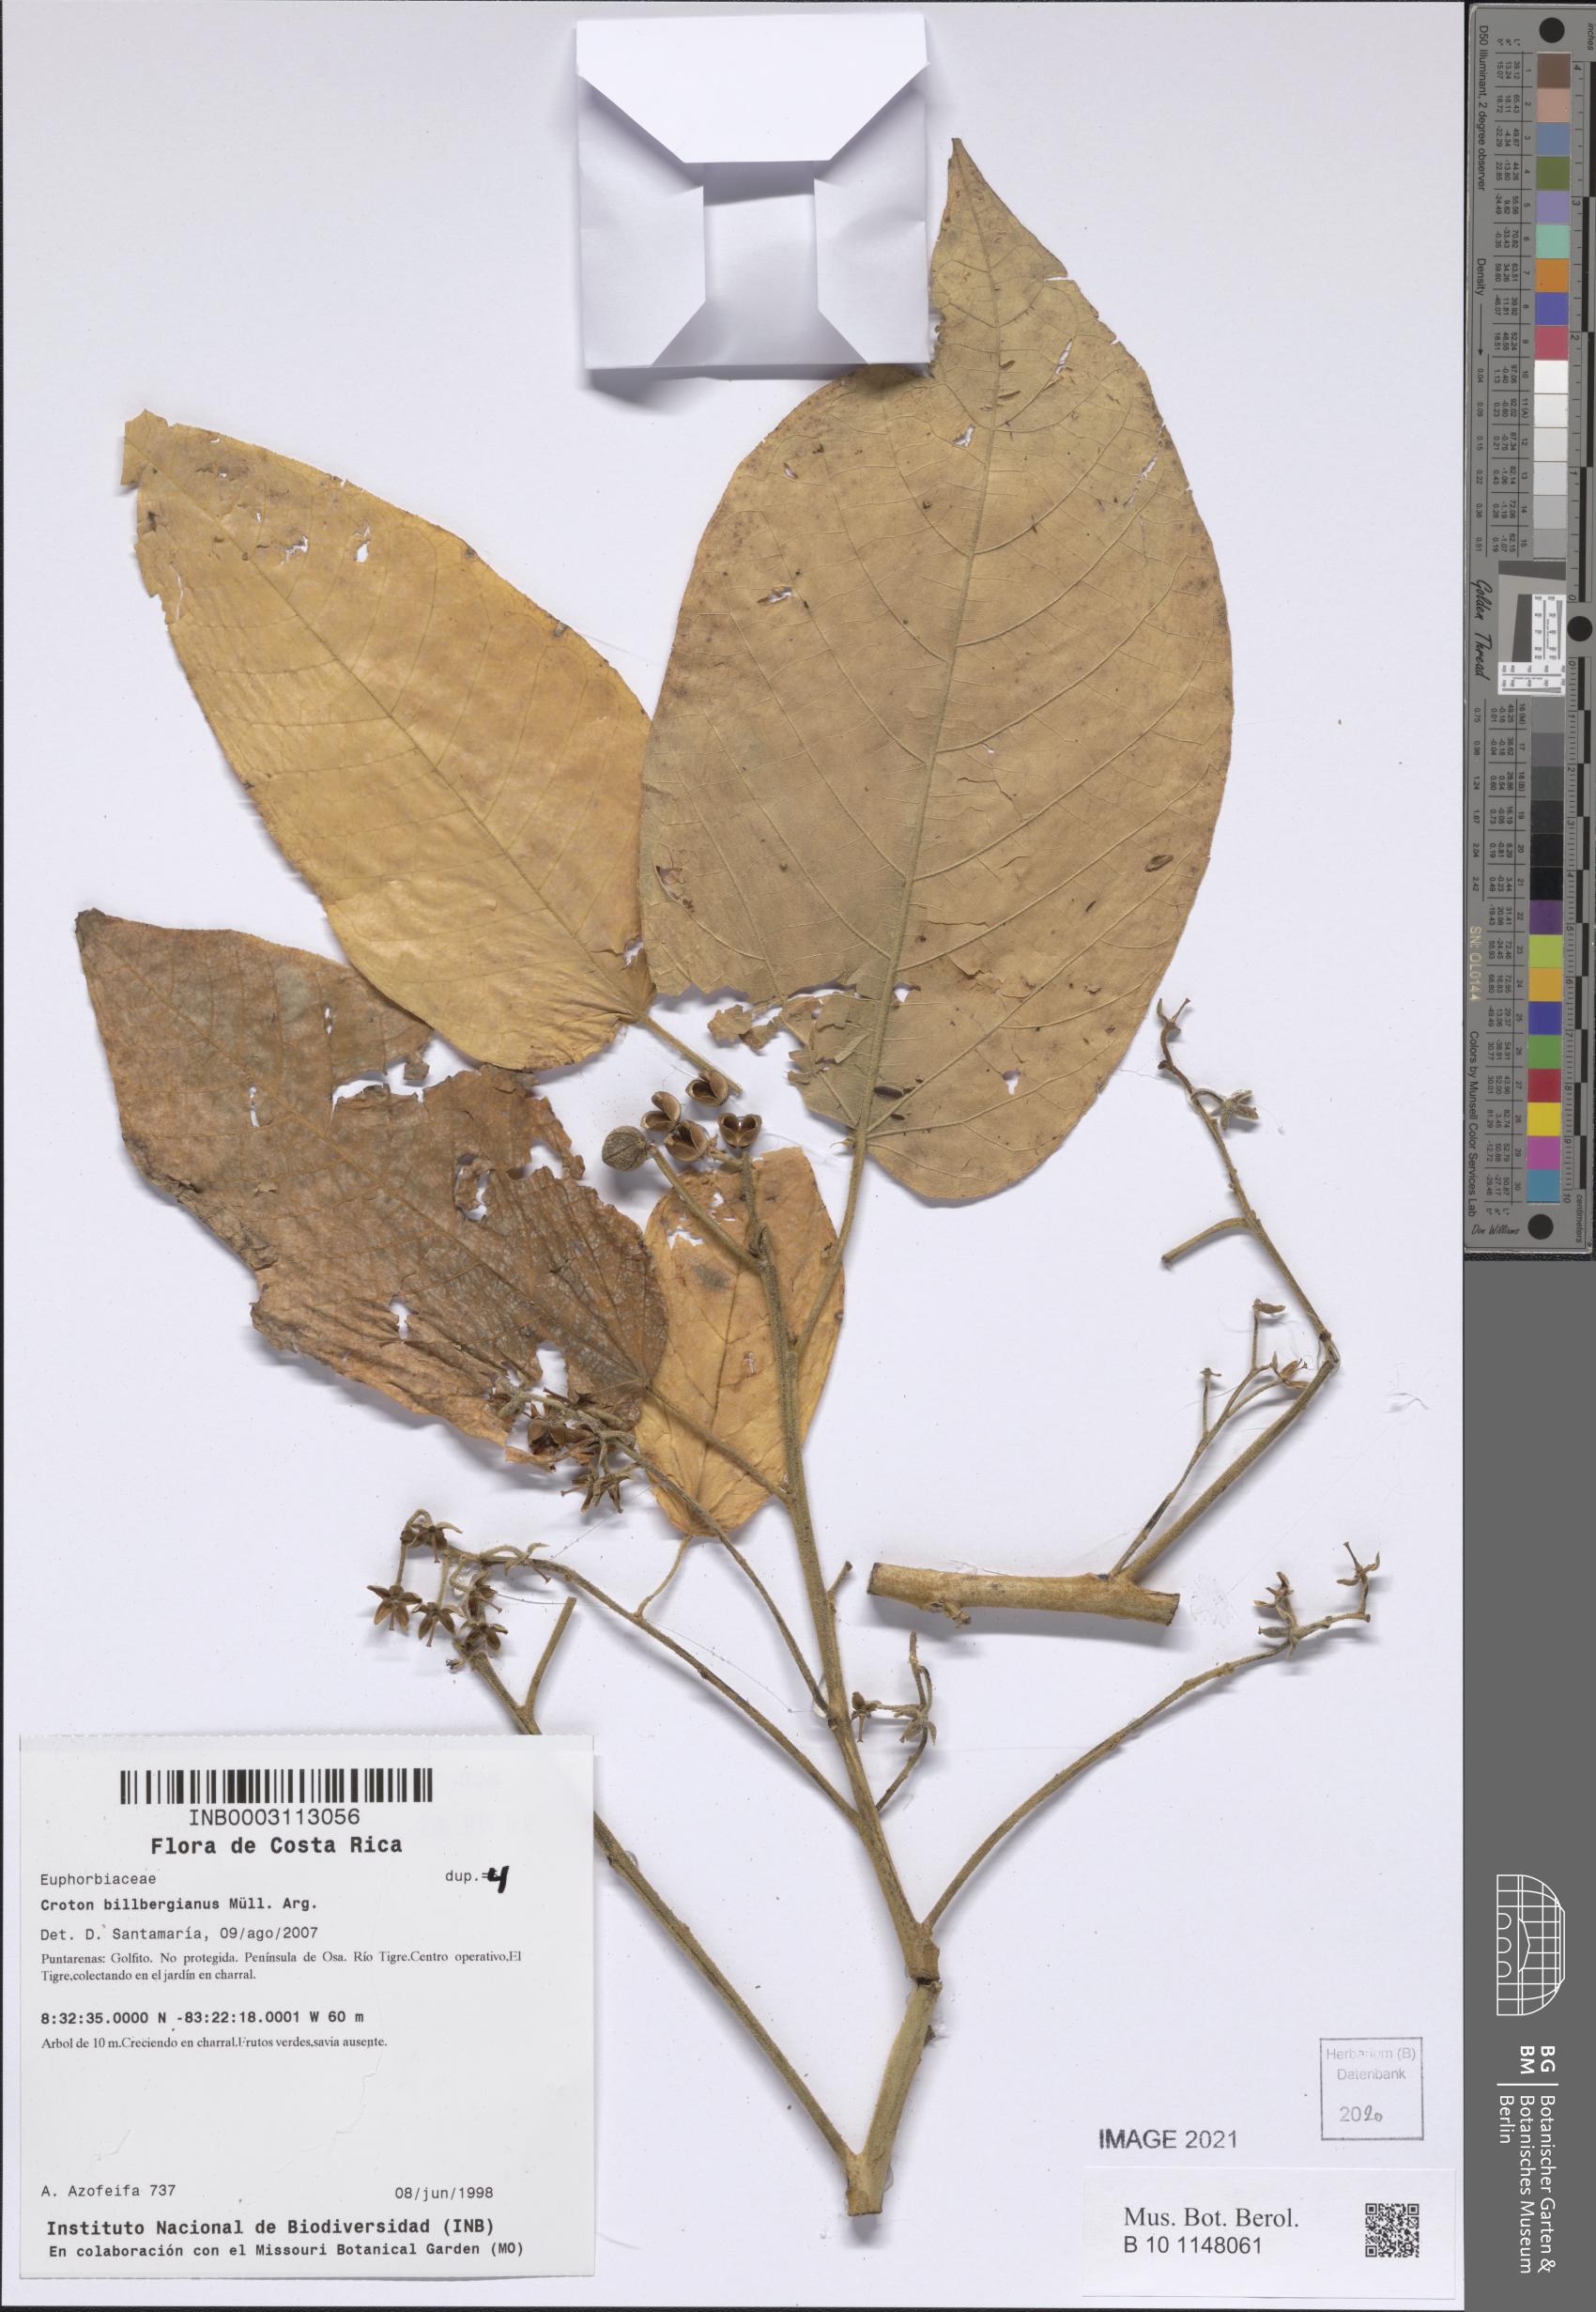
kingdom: Plantae
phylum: Tracheophyta
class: Magnoliopsida
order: Malpighiales
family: Euphorbiaceae
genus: Croton
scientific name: Croton billbergianus
